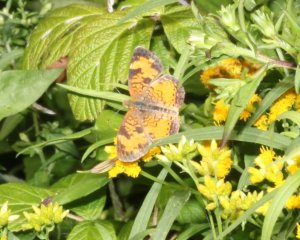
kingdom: Animalia
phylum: Arthropoda
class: Insecta
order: Lepidoptera
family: Nymphalidae
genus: Phyciodes
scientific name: Phyciodes tharos
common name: Northern Crescent
